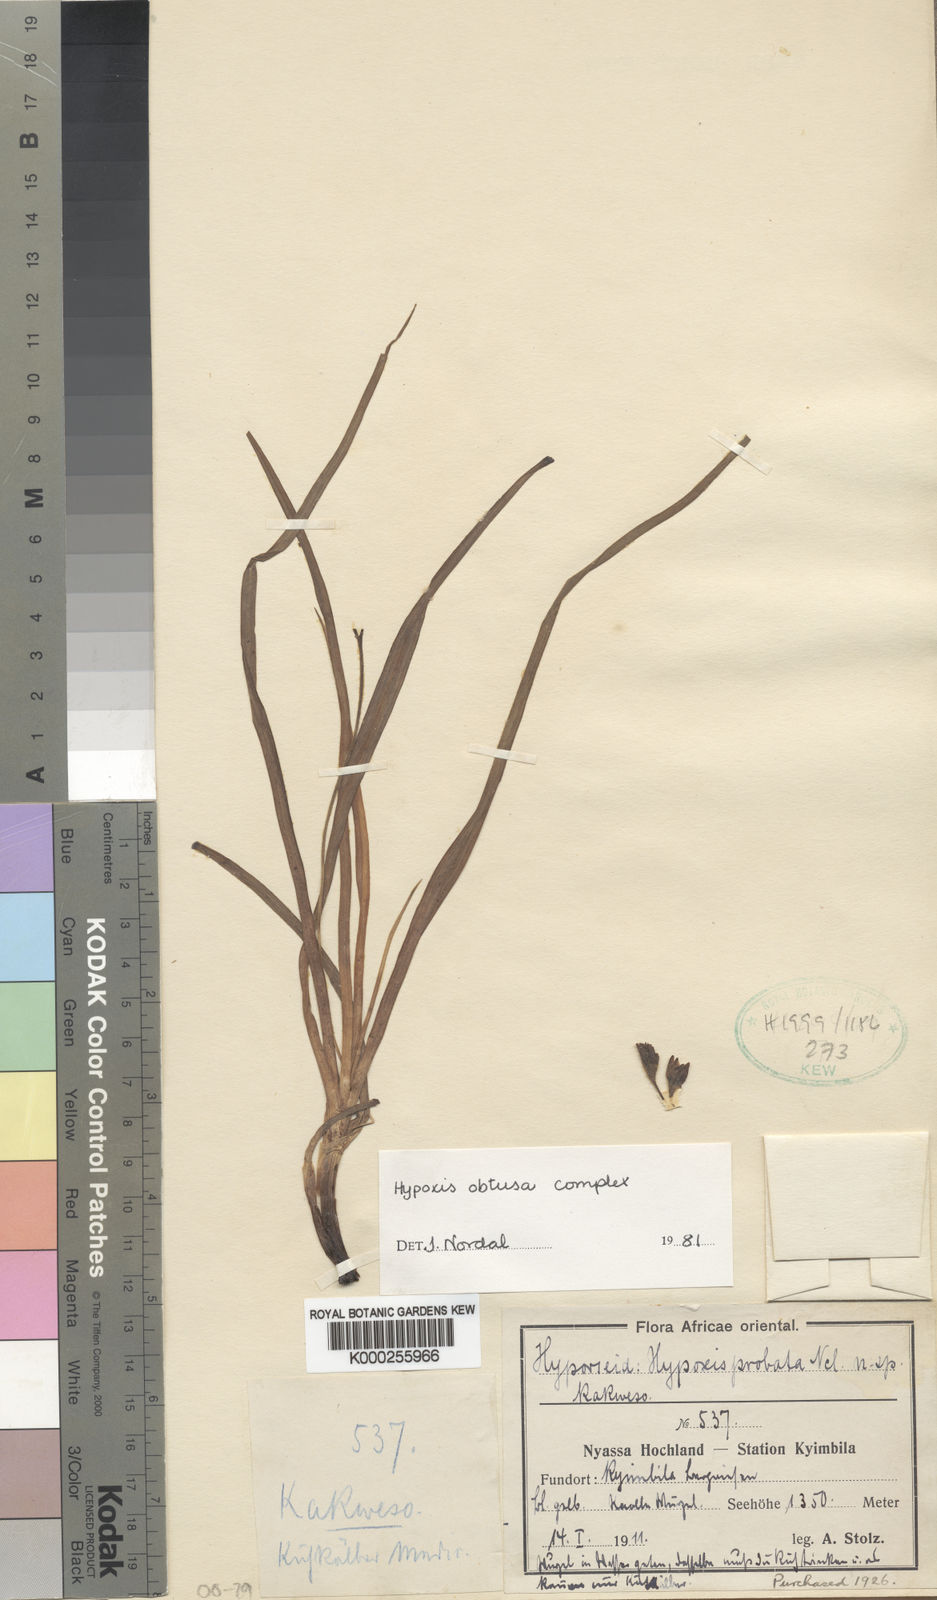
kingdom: Plantae
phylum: Tracheophyta
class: Liliopsida
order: Asparagales
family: Hypoxidaceae
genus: Hypoxis
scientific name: Hypoxis nyasica
